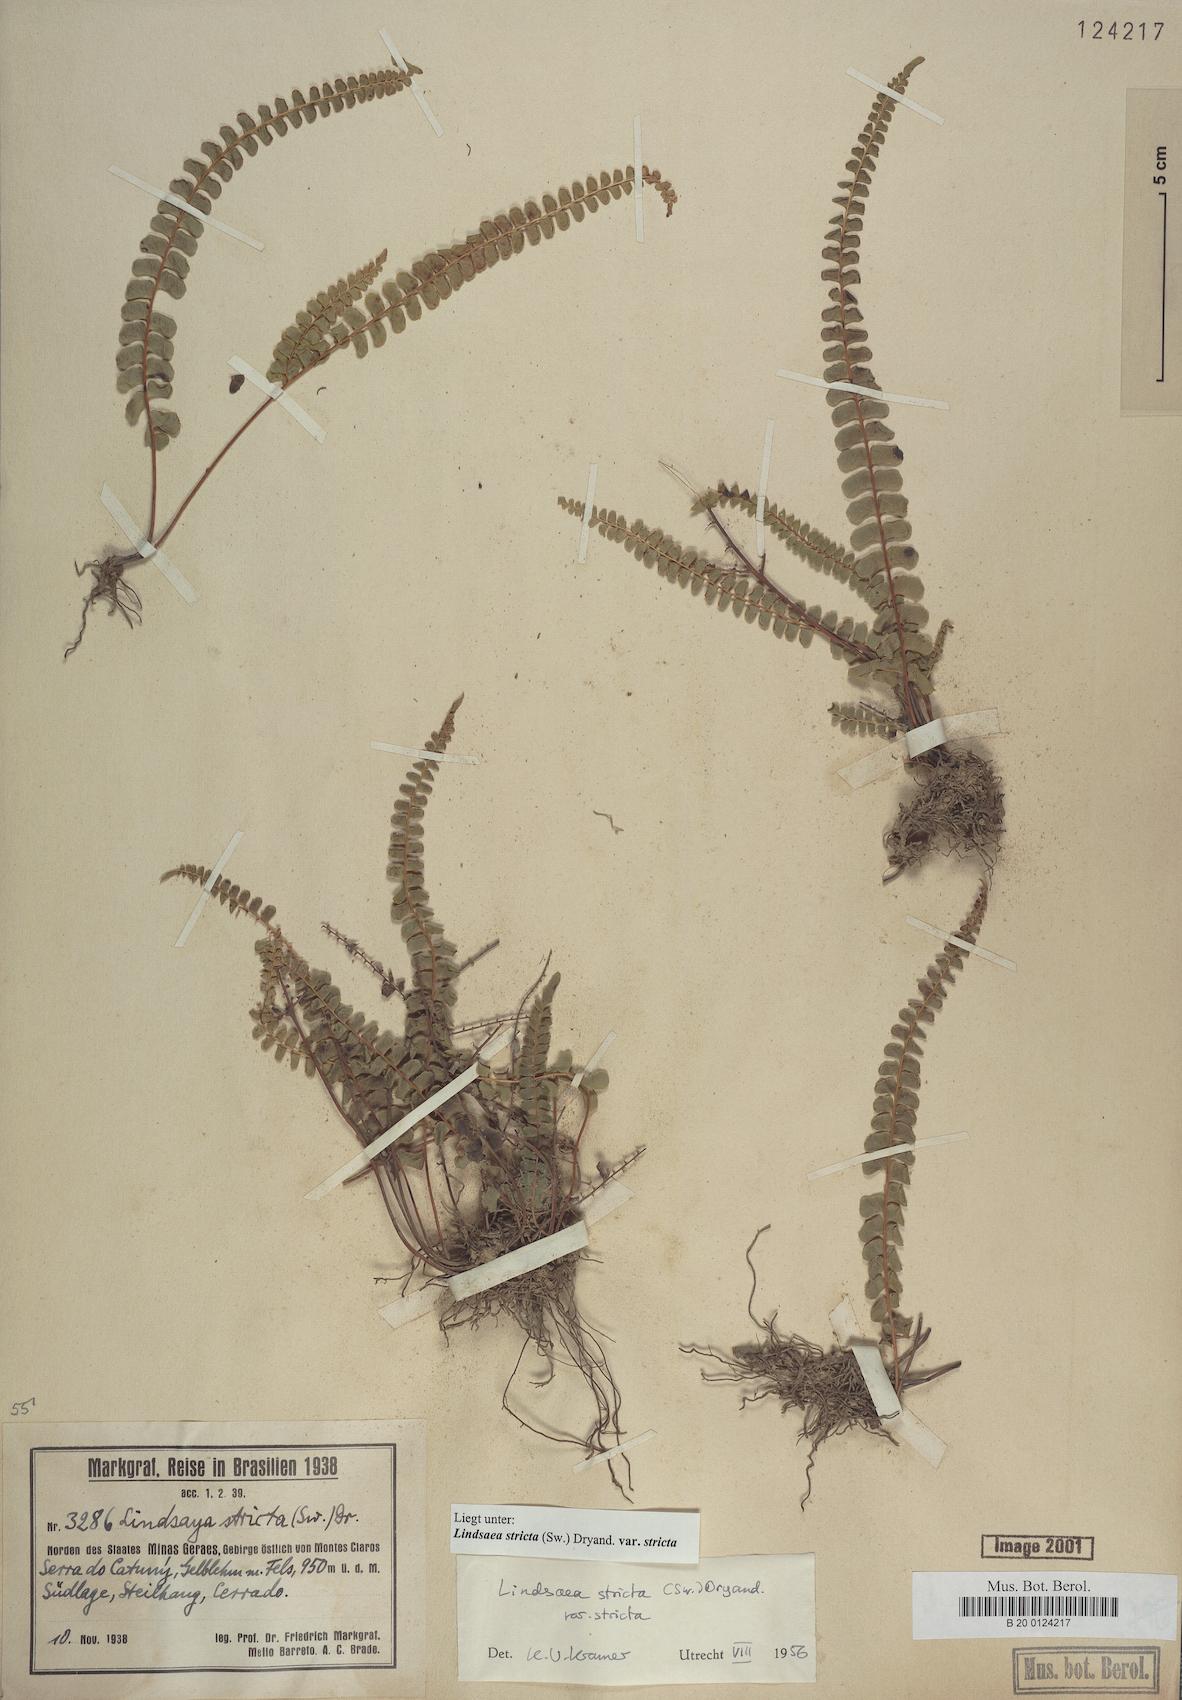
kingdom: Plantae
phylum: Tracheophyta
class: Polypodiopsida
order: Polypodiales
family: Lindsaeaceae
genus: Lindsaea
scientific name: Lindsaea stricta
